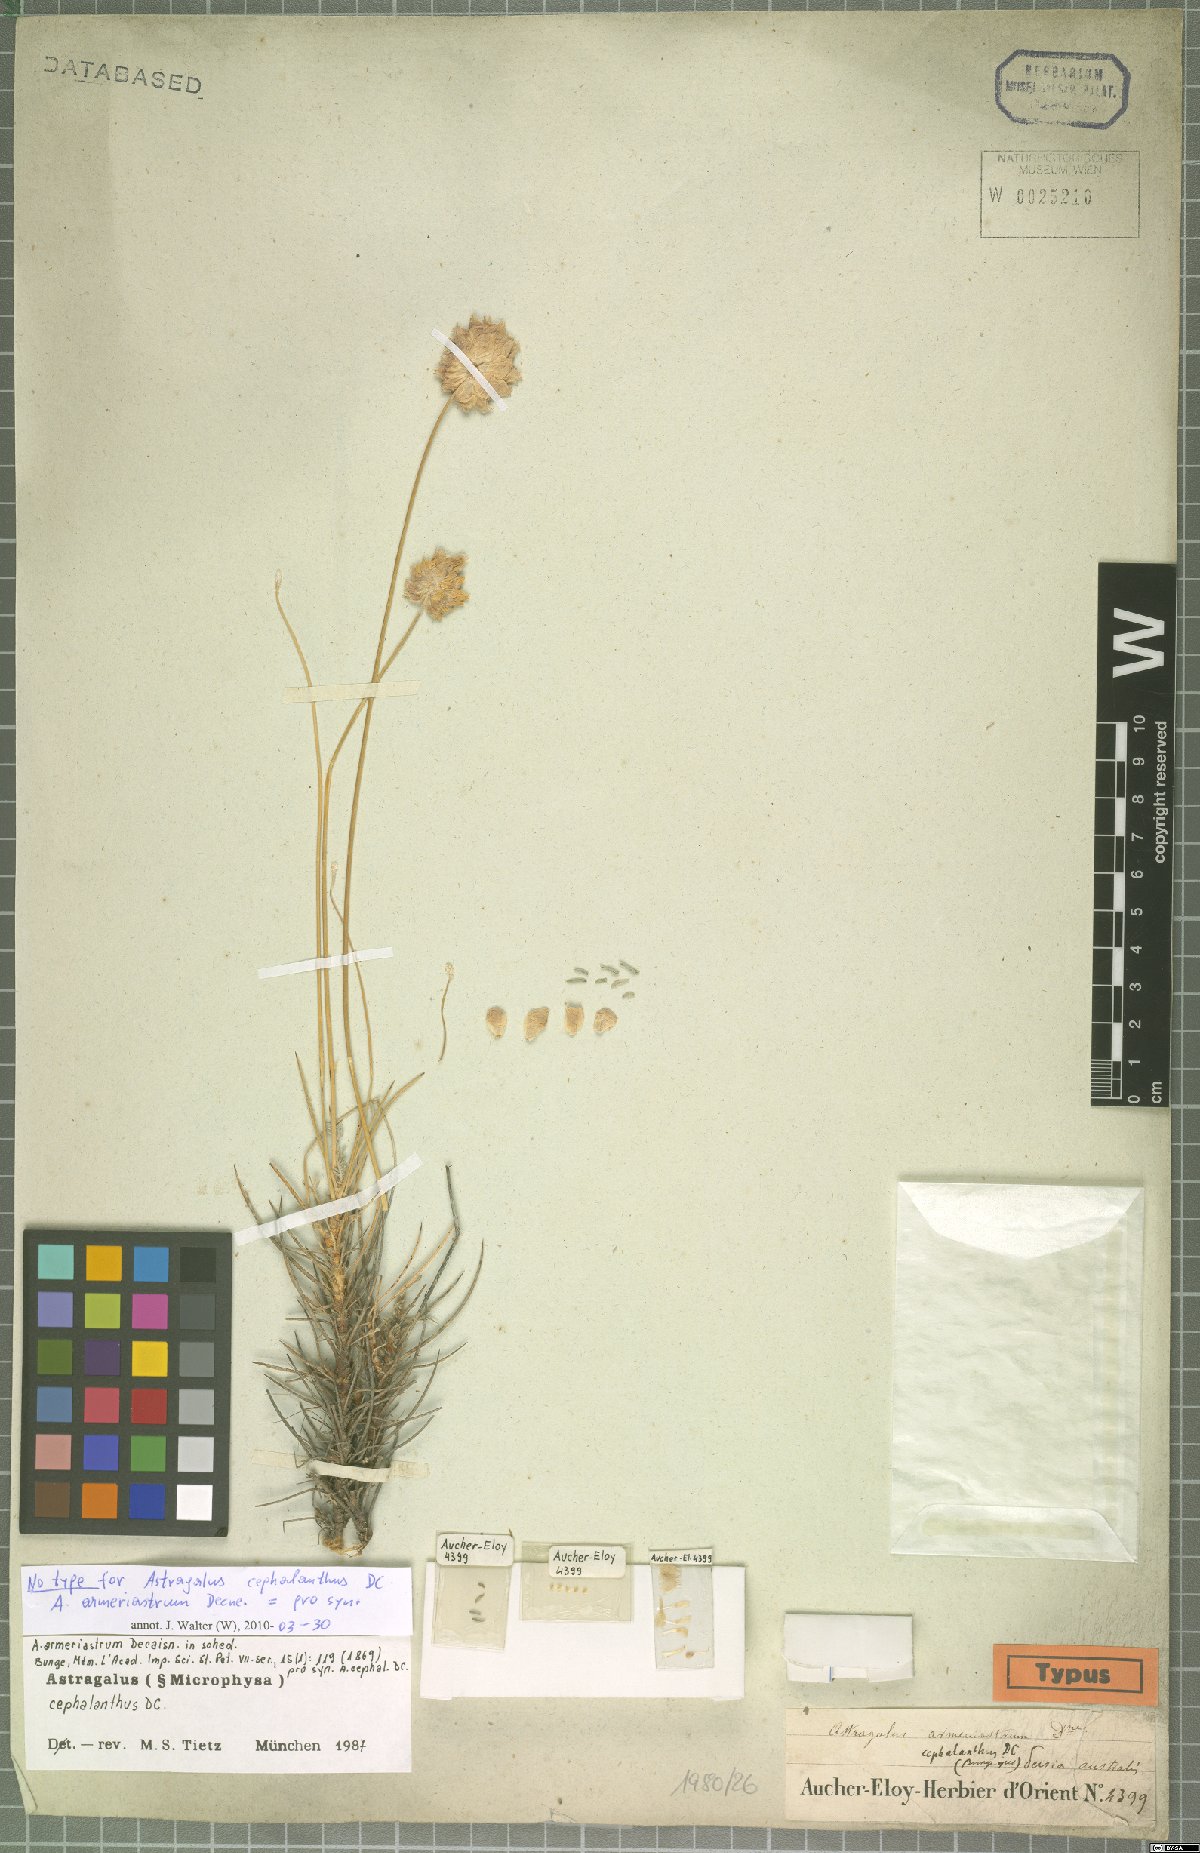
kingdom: Plantae
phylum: Tracheophyta
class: Magnoliopsida
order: Fabales
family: Fabaceae
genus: Astragalus
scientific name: Astragalus cephalanthus
